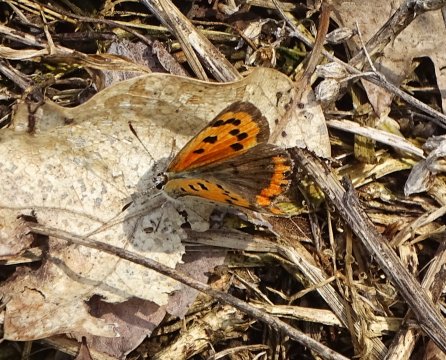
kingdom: Animalia
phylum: Arthropoda
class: Insecta
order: Lepidoptera
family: Lycaenidae
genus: Lycaena
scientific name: Lycaena phlaeas
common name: American Copper
